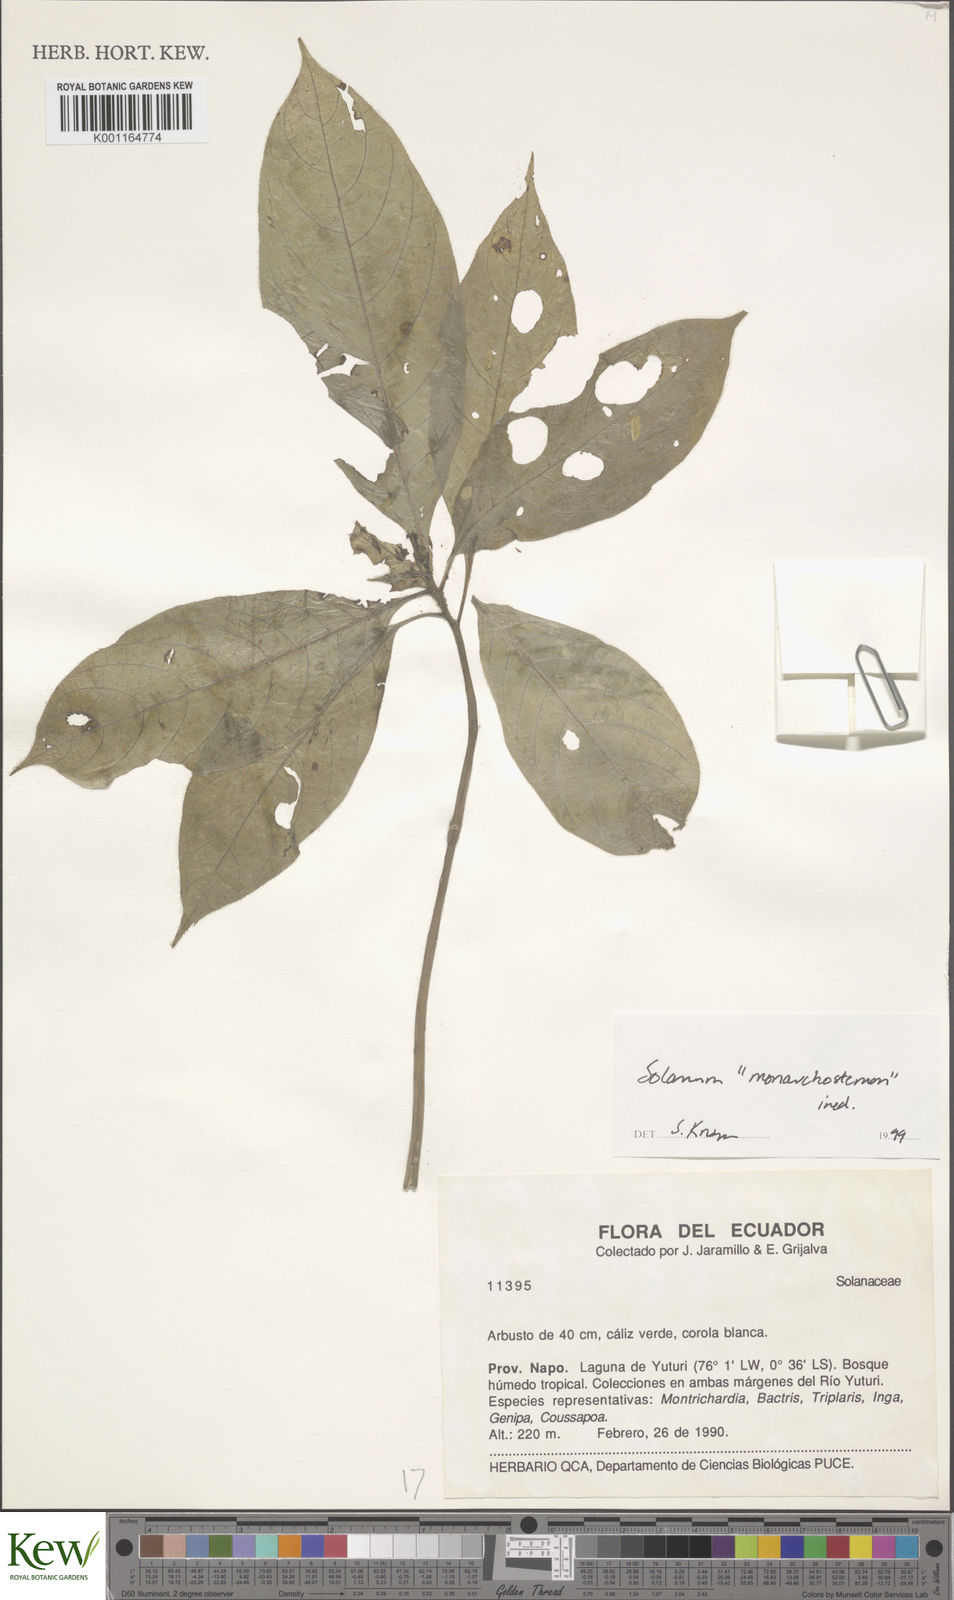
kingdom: Plantae
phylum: Tracheophyta
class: Magnoliopsida
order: Solanales
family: Solanaceae
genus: Solanum
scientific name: Solanum monarchostemon
